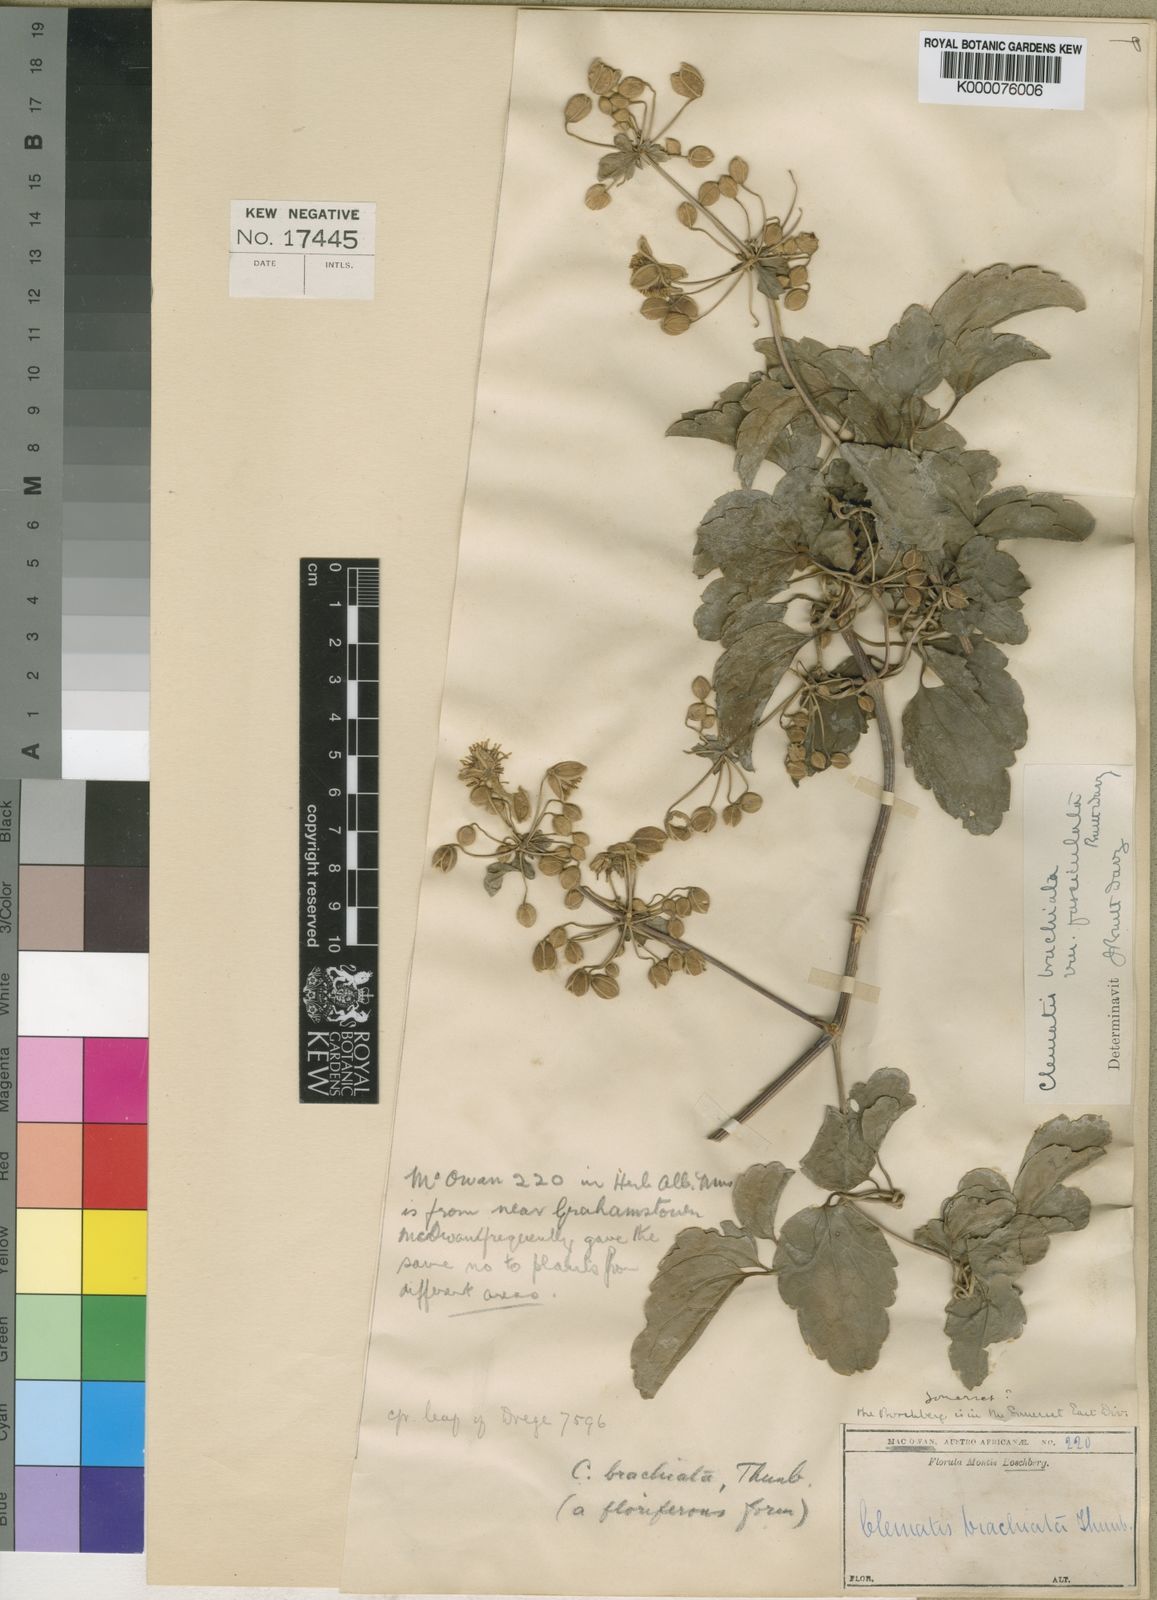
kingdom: Plantae
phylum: Tracheophyta
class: Magnoliopsida
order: Ranunculales
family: Ranunculaceae
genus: Clematis
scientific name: Clematis brachiata
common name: Traveler's-joy
